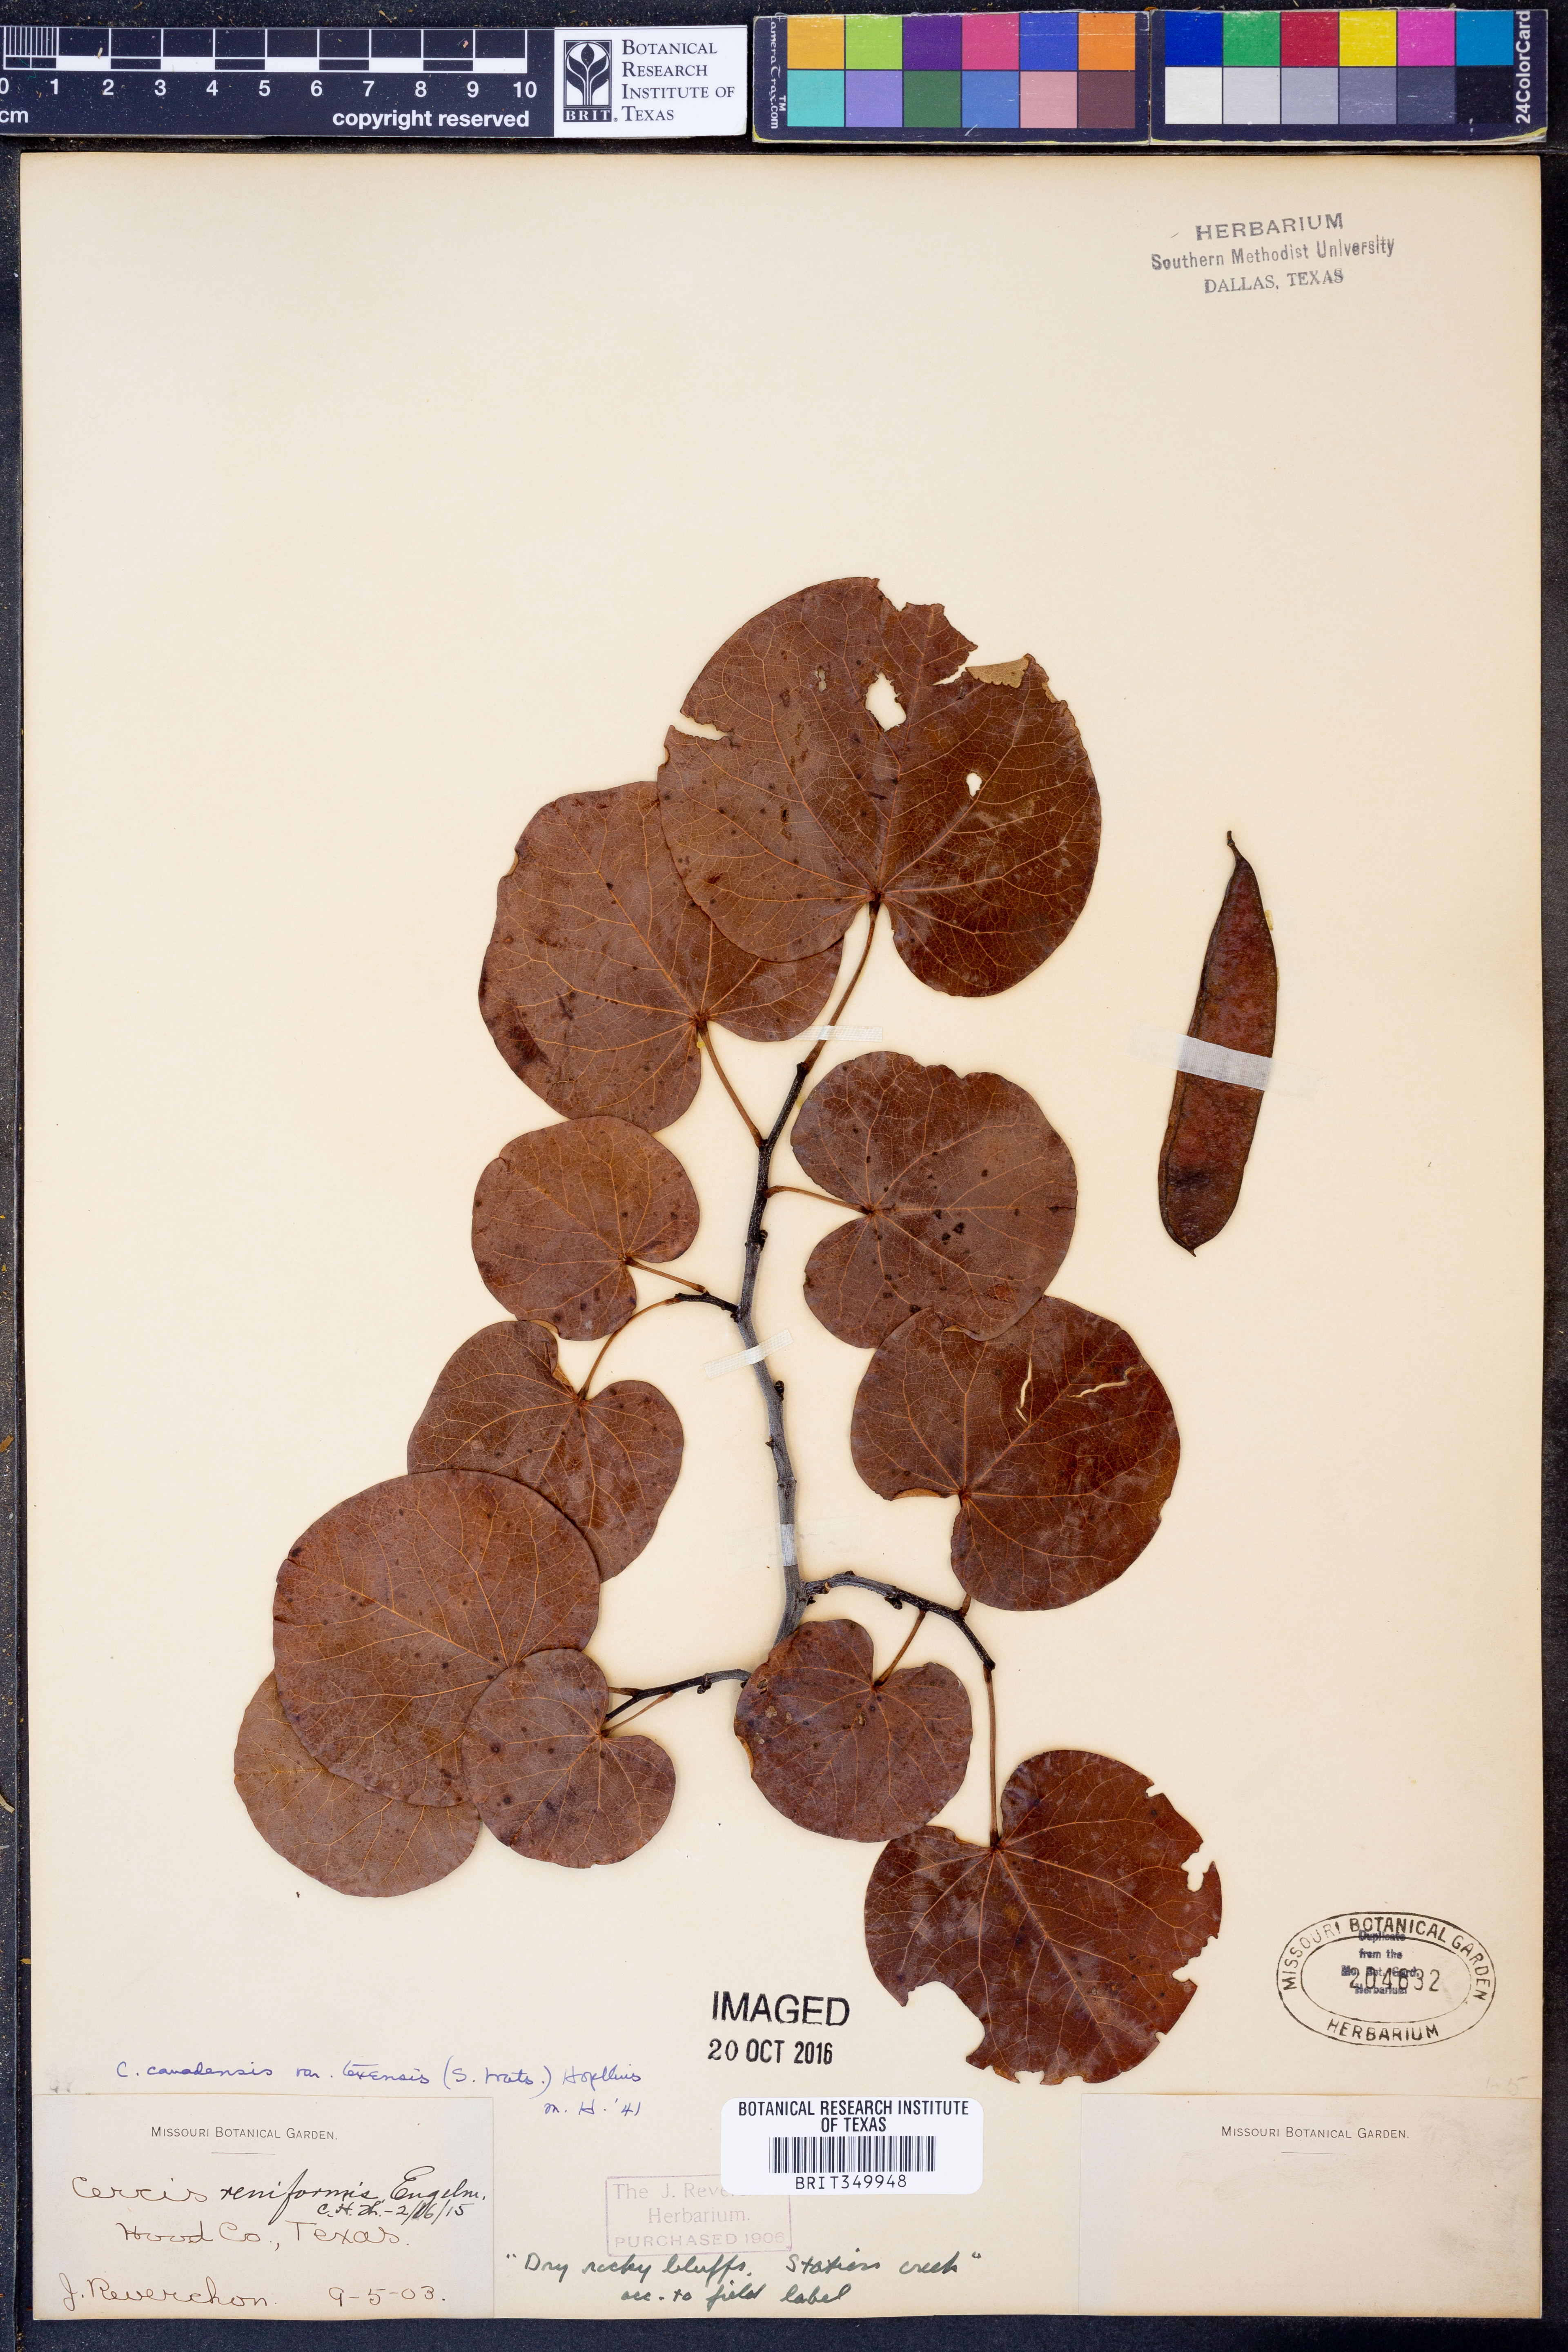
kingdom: Plantae
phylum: Tracheophyta
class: Magnoliopsida
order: Fabales
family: Fabaceae
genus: Cercis
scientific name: Cercis canadensis
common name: Eastern redbud
